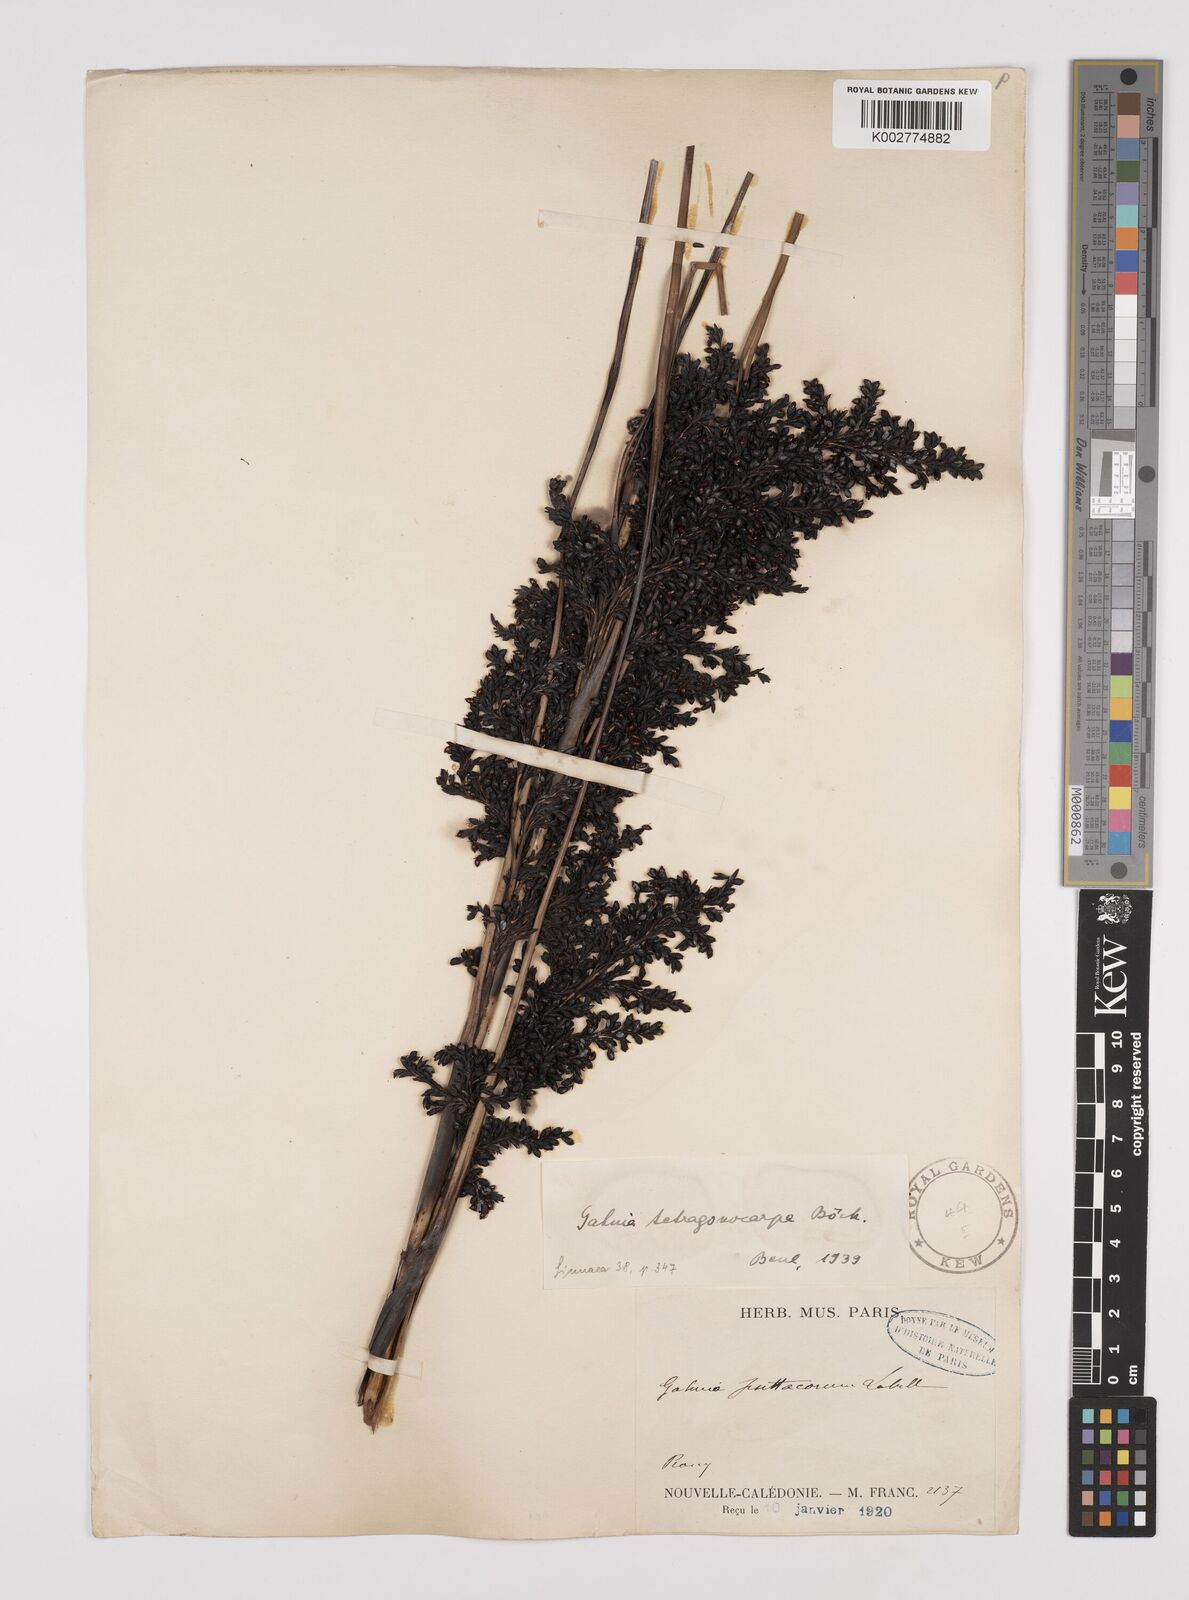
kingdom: Plantae
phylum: Tracheophyta
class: Liliopsida
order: Poales
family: Cyperaceae
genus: Gahnia
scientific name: Gahnia sieberiana
